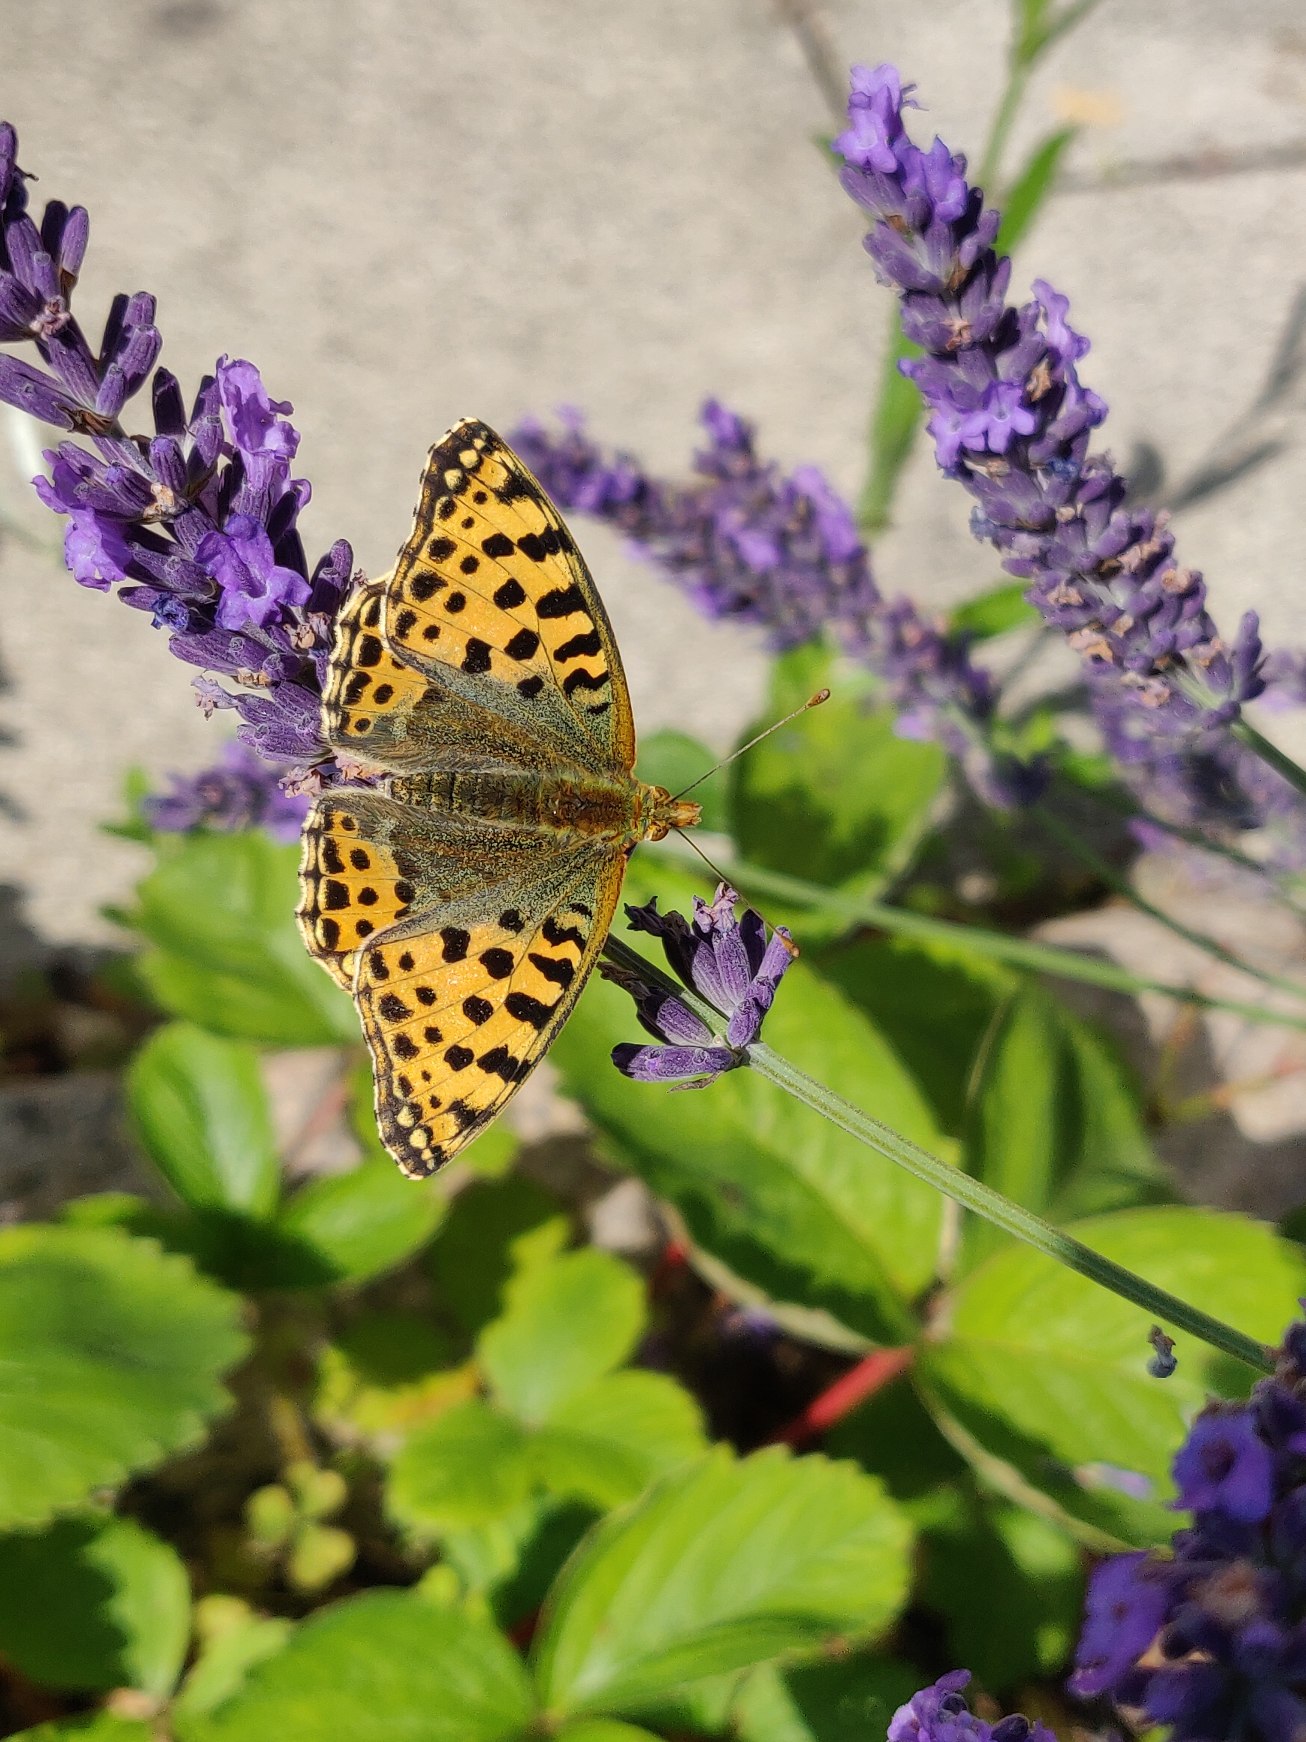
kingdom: Animalia
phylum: Arthropoda
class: Insecta
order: Lepidoptera
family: Nymphalidae
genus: Issoria
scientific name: Issoria lathonia
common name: Storplettet perlemorsommerfugl
